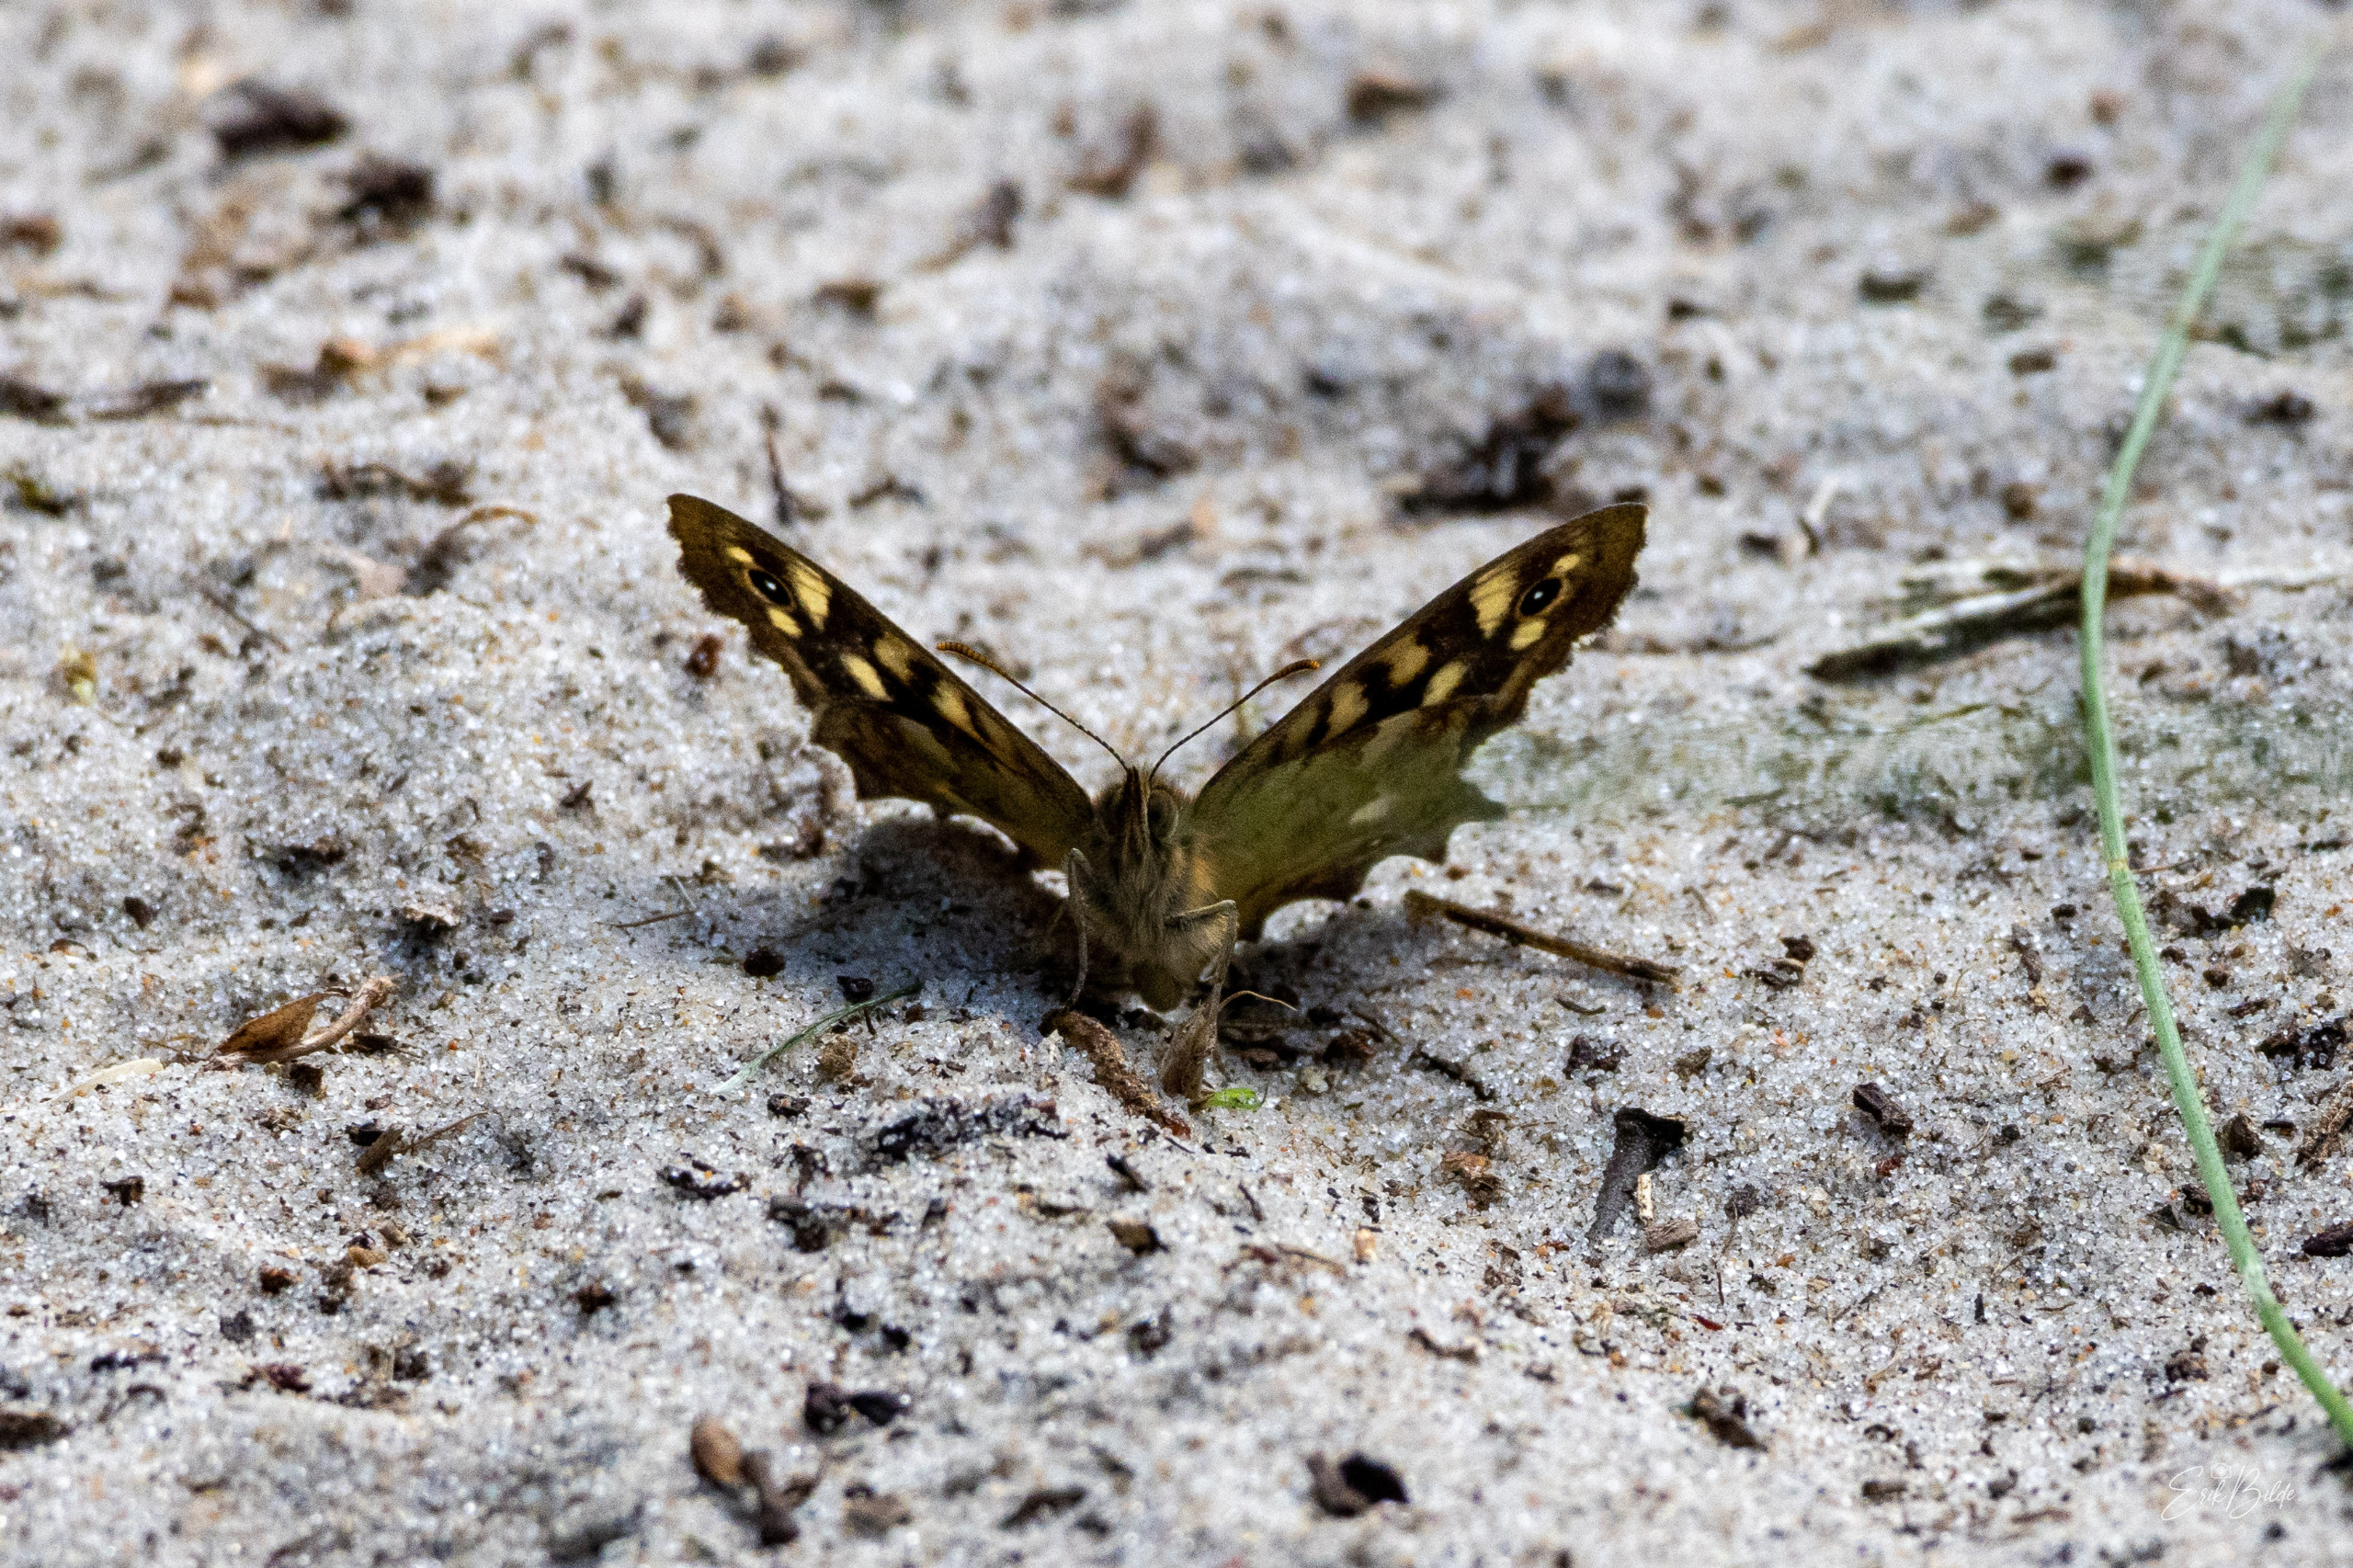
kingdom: Animalia
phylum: Arthropoda
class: Insecta
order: Lepidoptera
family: Nymphalidae
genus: Pararge
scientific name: Pararge aegeria
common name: Skovrandøje
